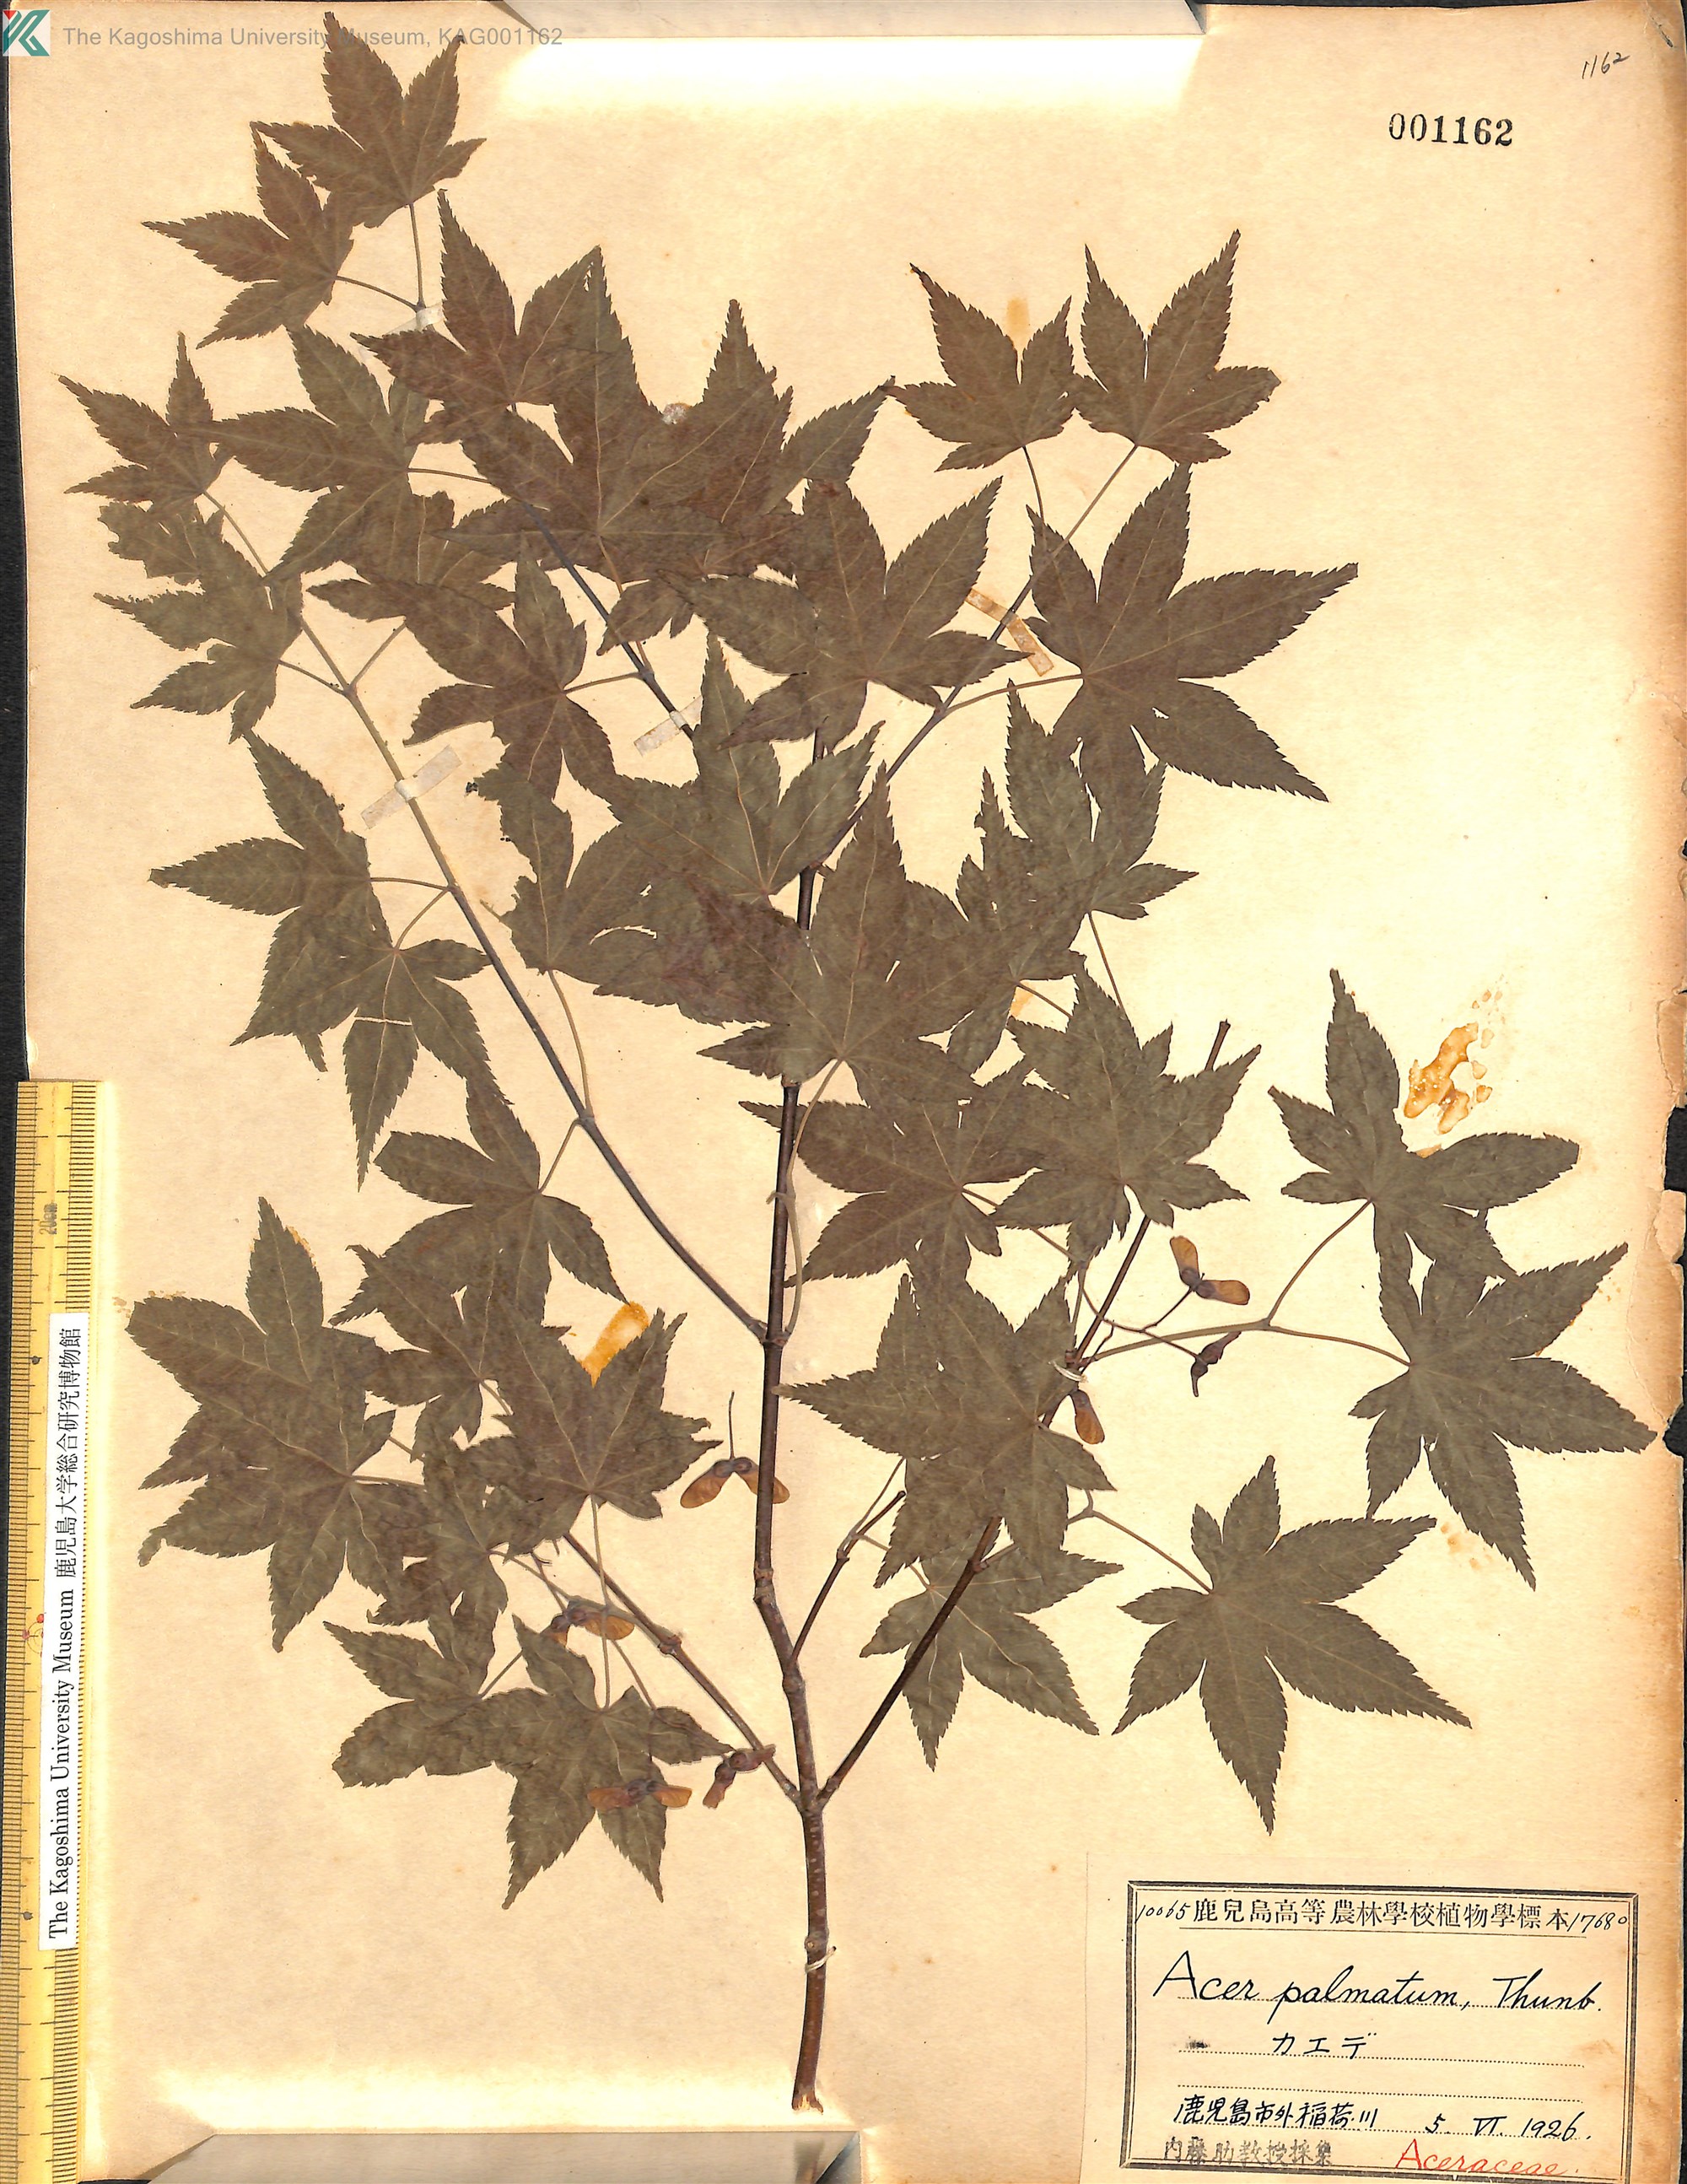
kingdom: Plantae
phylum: Tracheophyta
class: Magnoliopsida
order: Sapindales
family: Sapindaceae
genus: Acer
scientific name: Acer palmatum
